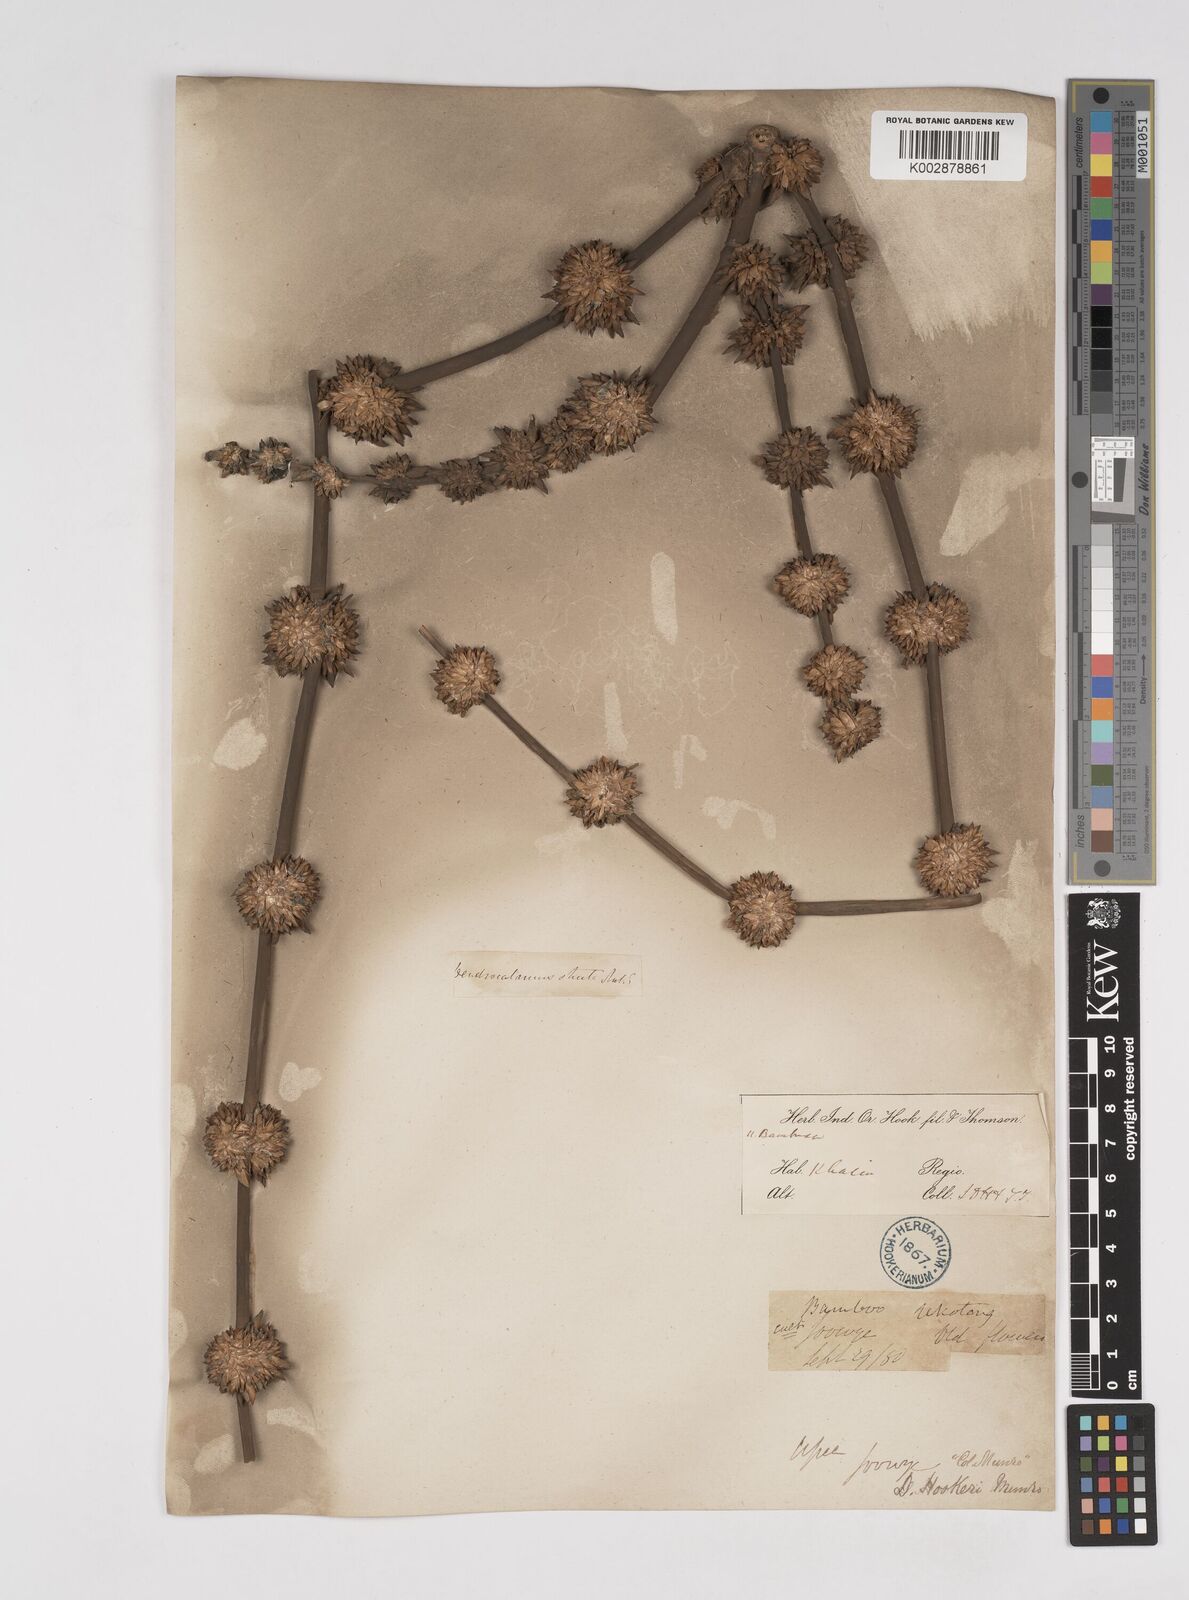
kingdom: Plantae
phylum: Tracheophyta
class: Liliopsida
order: Poales
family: Poaceae
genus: Dendrocalamus
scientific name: Dendrocalamus hookeri
